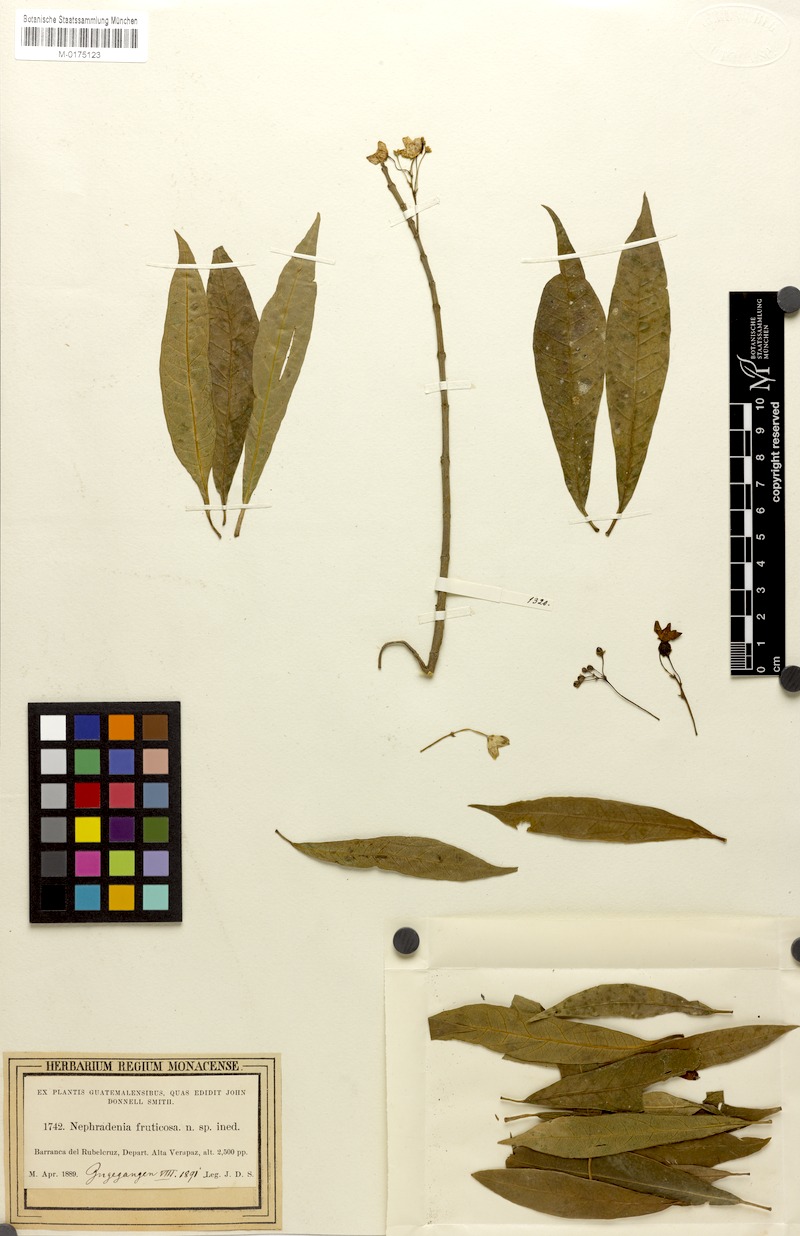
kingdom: Plantae
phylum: Tracheophyta
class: Magnoliopsida
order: Gentianales
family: Apocynaceae
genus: Ruehssia
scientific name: Ruehssia fruticosa
